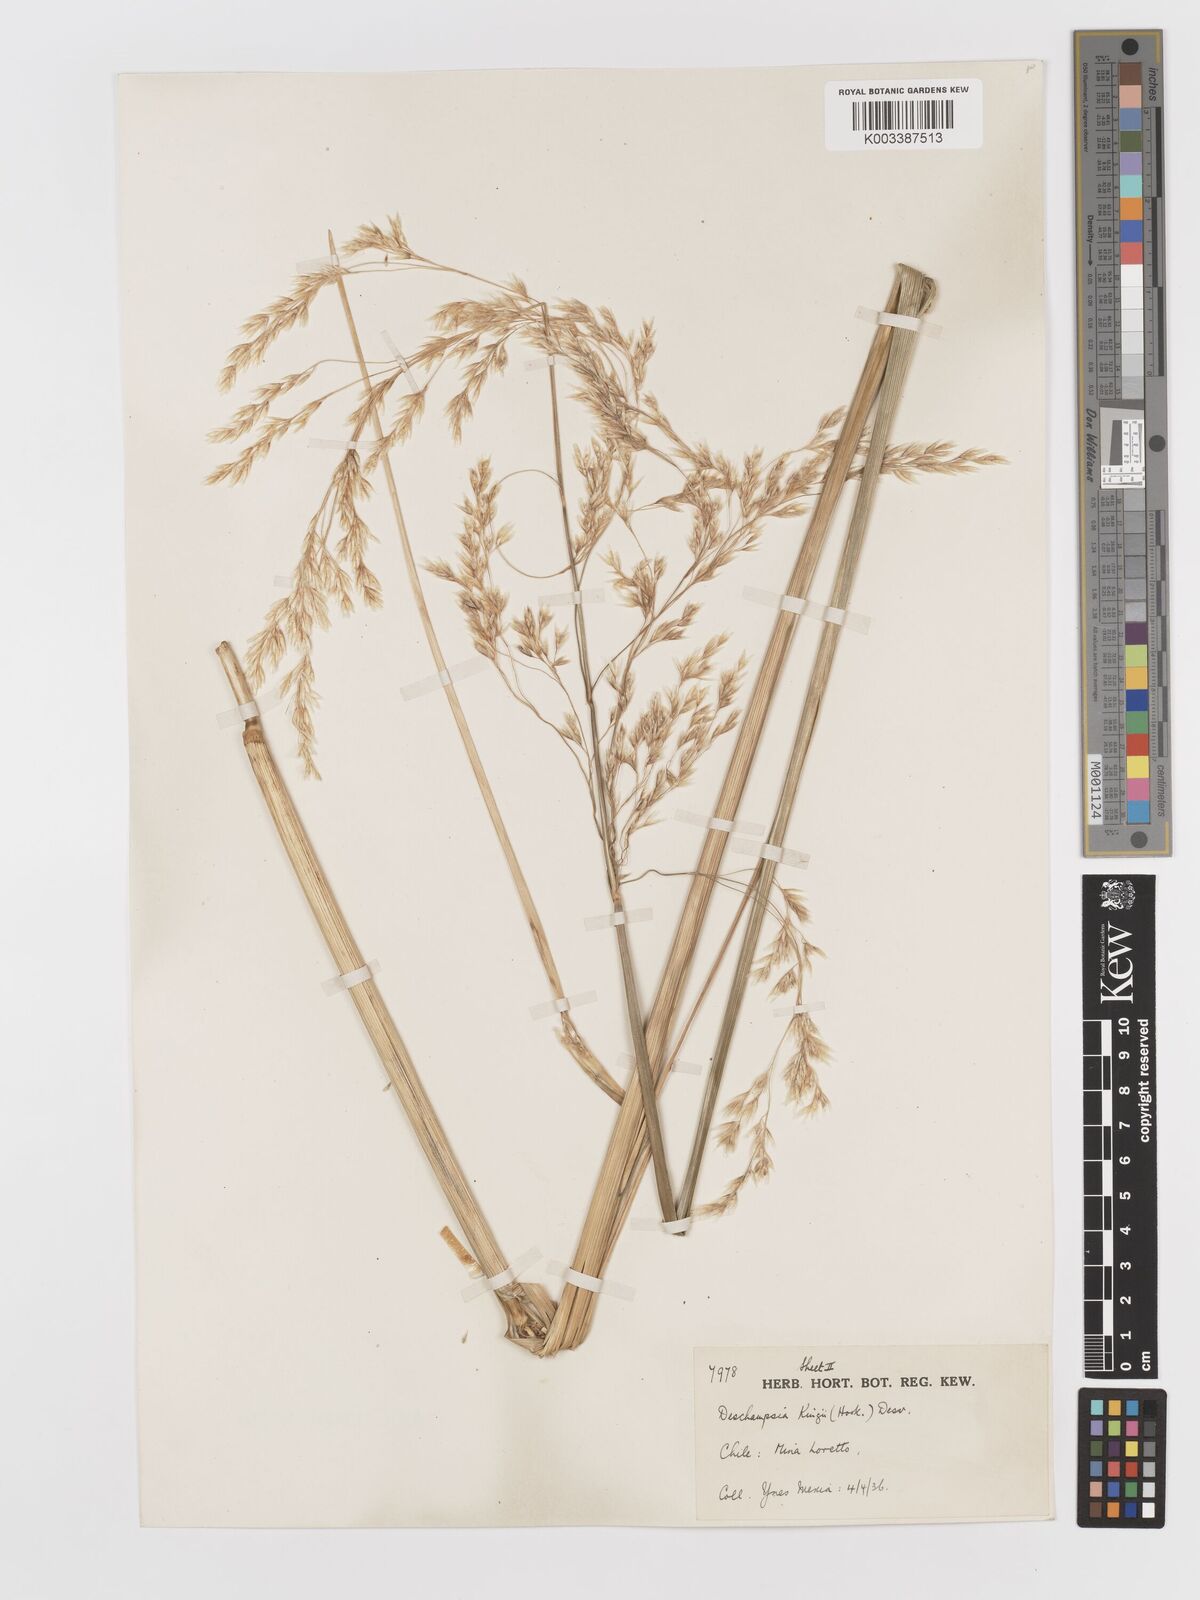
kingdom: Plantae
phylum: Tracheophyta
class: Liliopsida
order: Poales
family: Poaceae
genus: Deschampsia
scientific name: Deschampsia kingii
